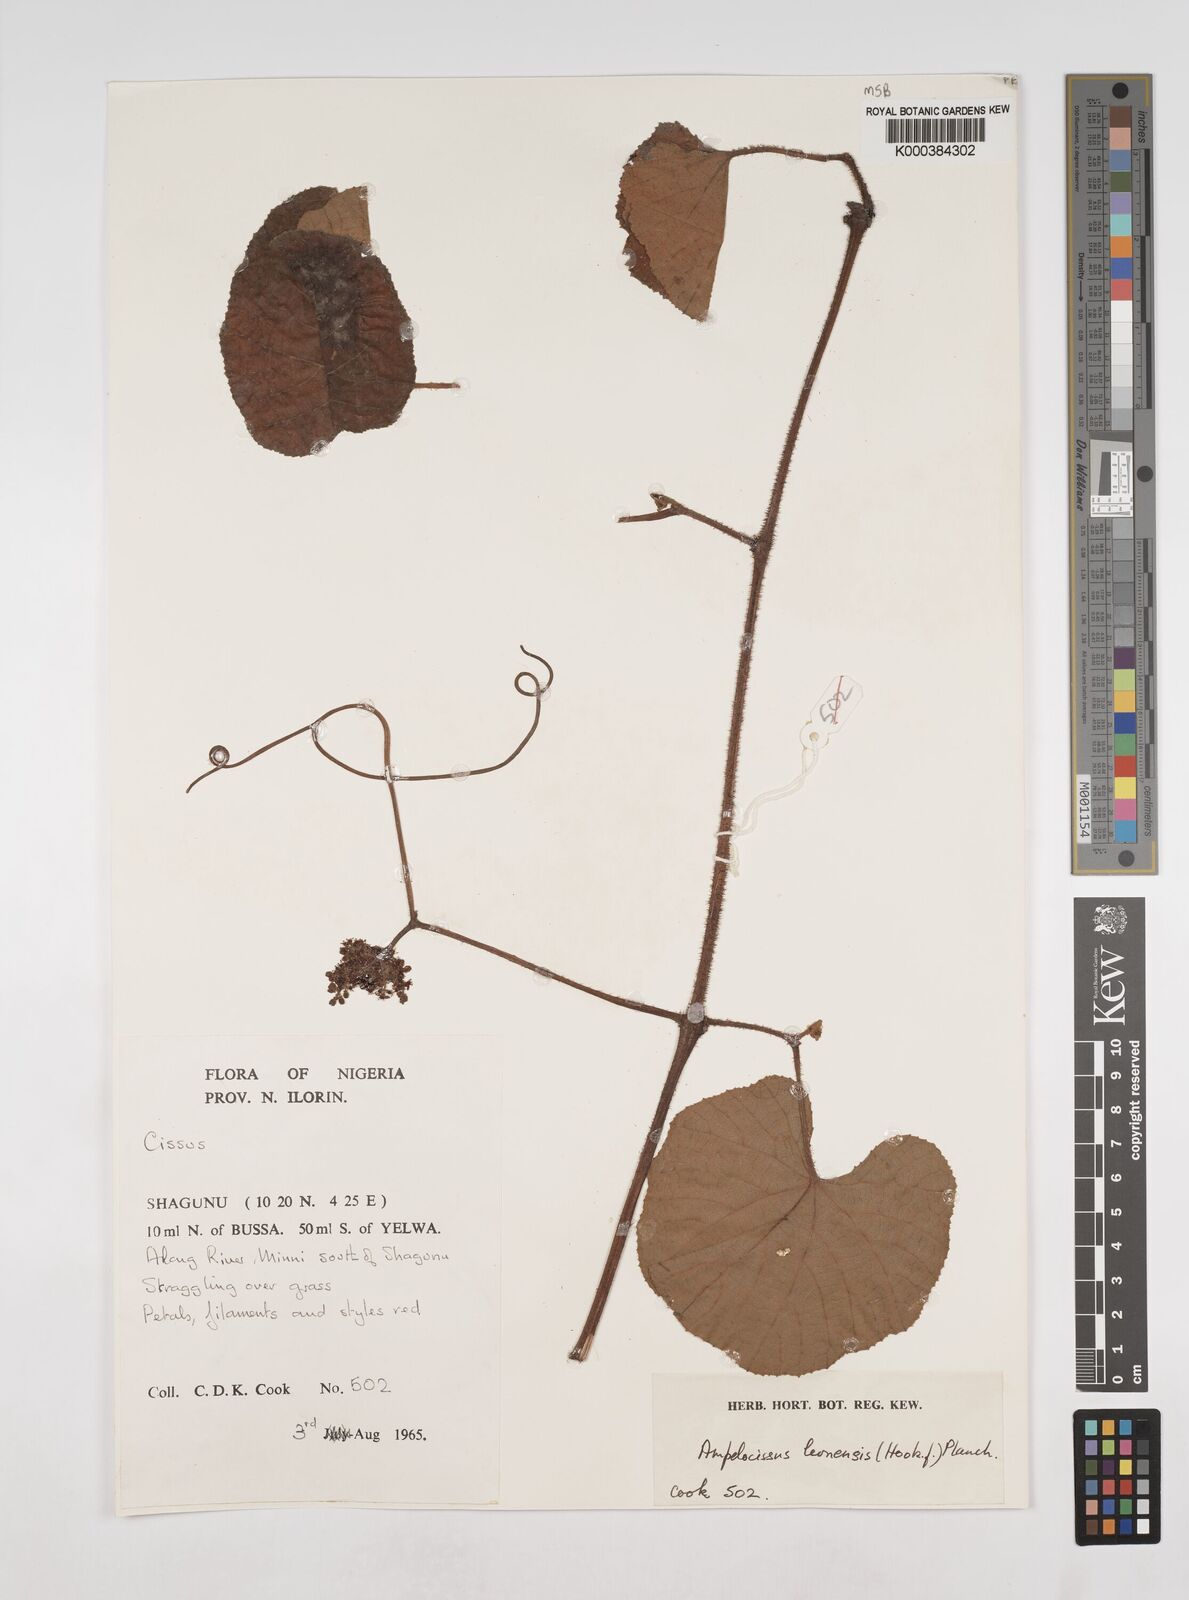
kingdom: Plantae
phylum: Tracheophyta
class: Magnoliopsida
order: Vitales
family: Vitaceae
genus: Ampelocissus
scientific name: Ampelocissus leonensis
